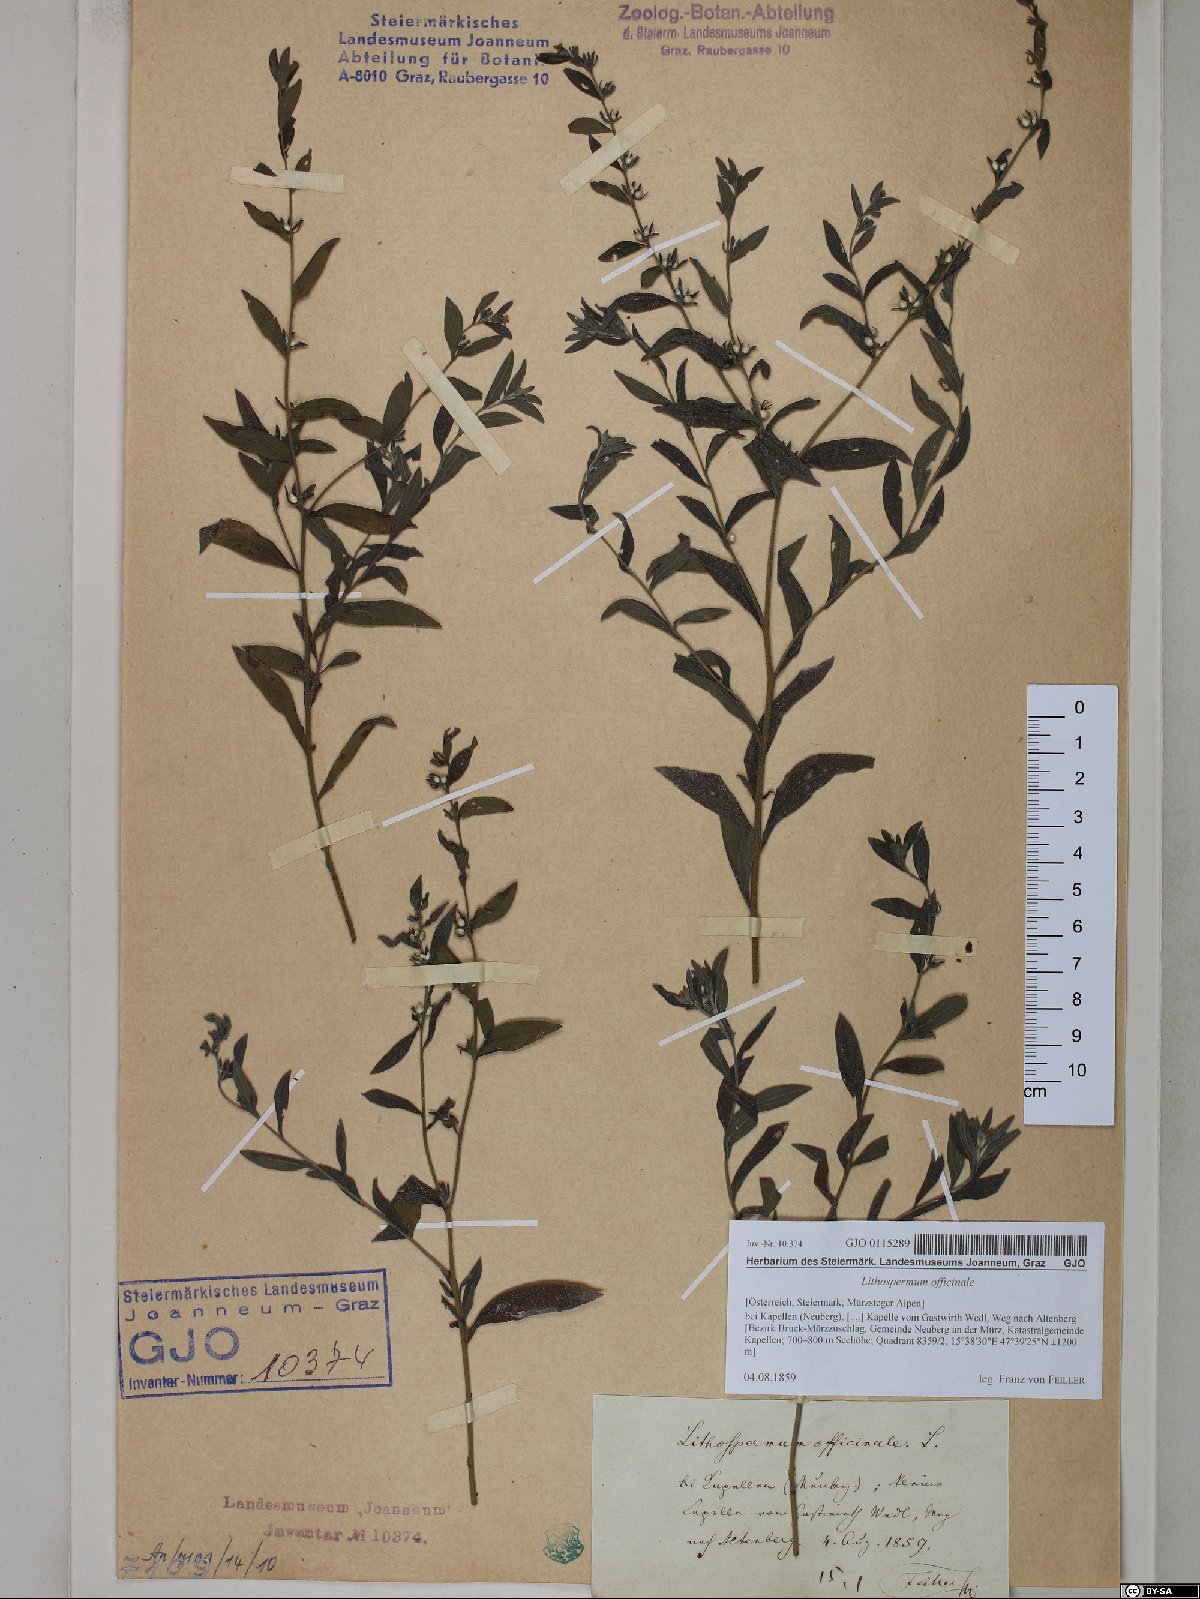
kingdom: Plantae
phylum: Tracheophyta
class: Magnoliopsida
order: Boraginales
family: Boraginaceae
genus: Lithospermum
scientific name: Lithospermum officinale
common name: Common gromwell
